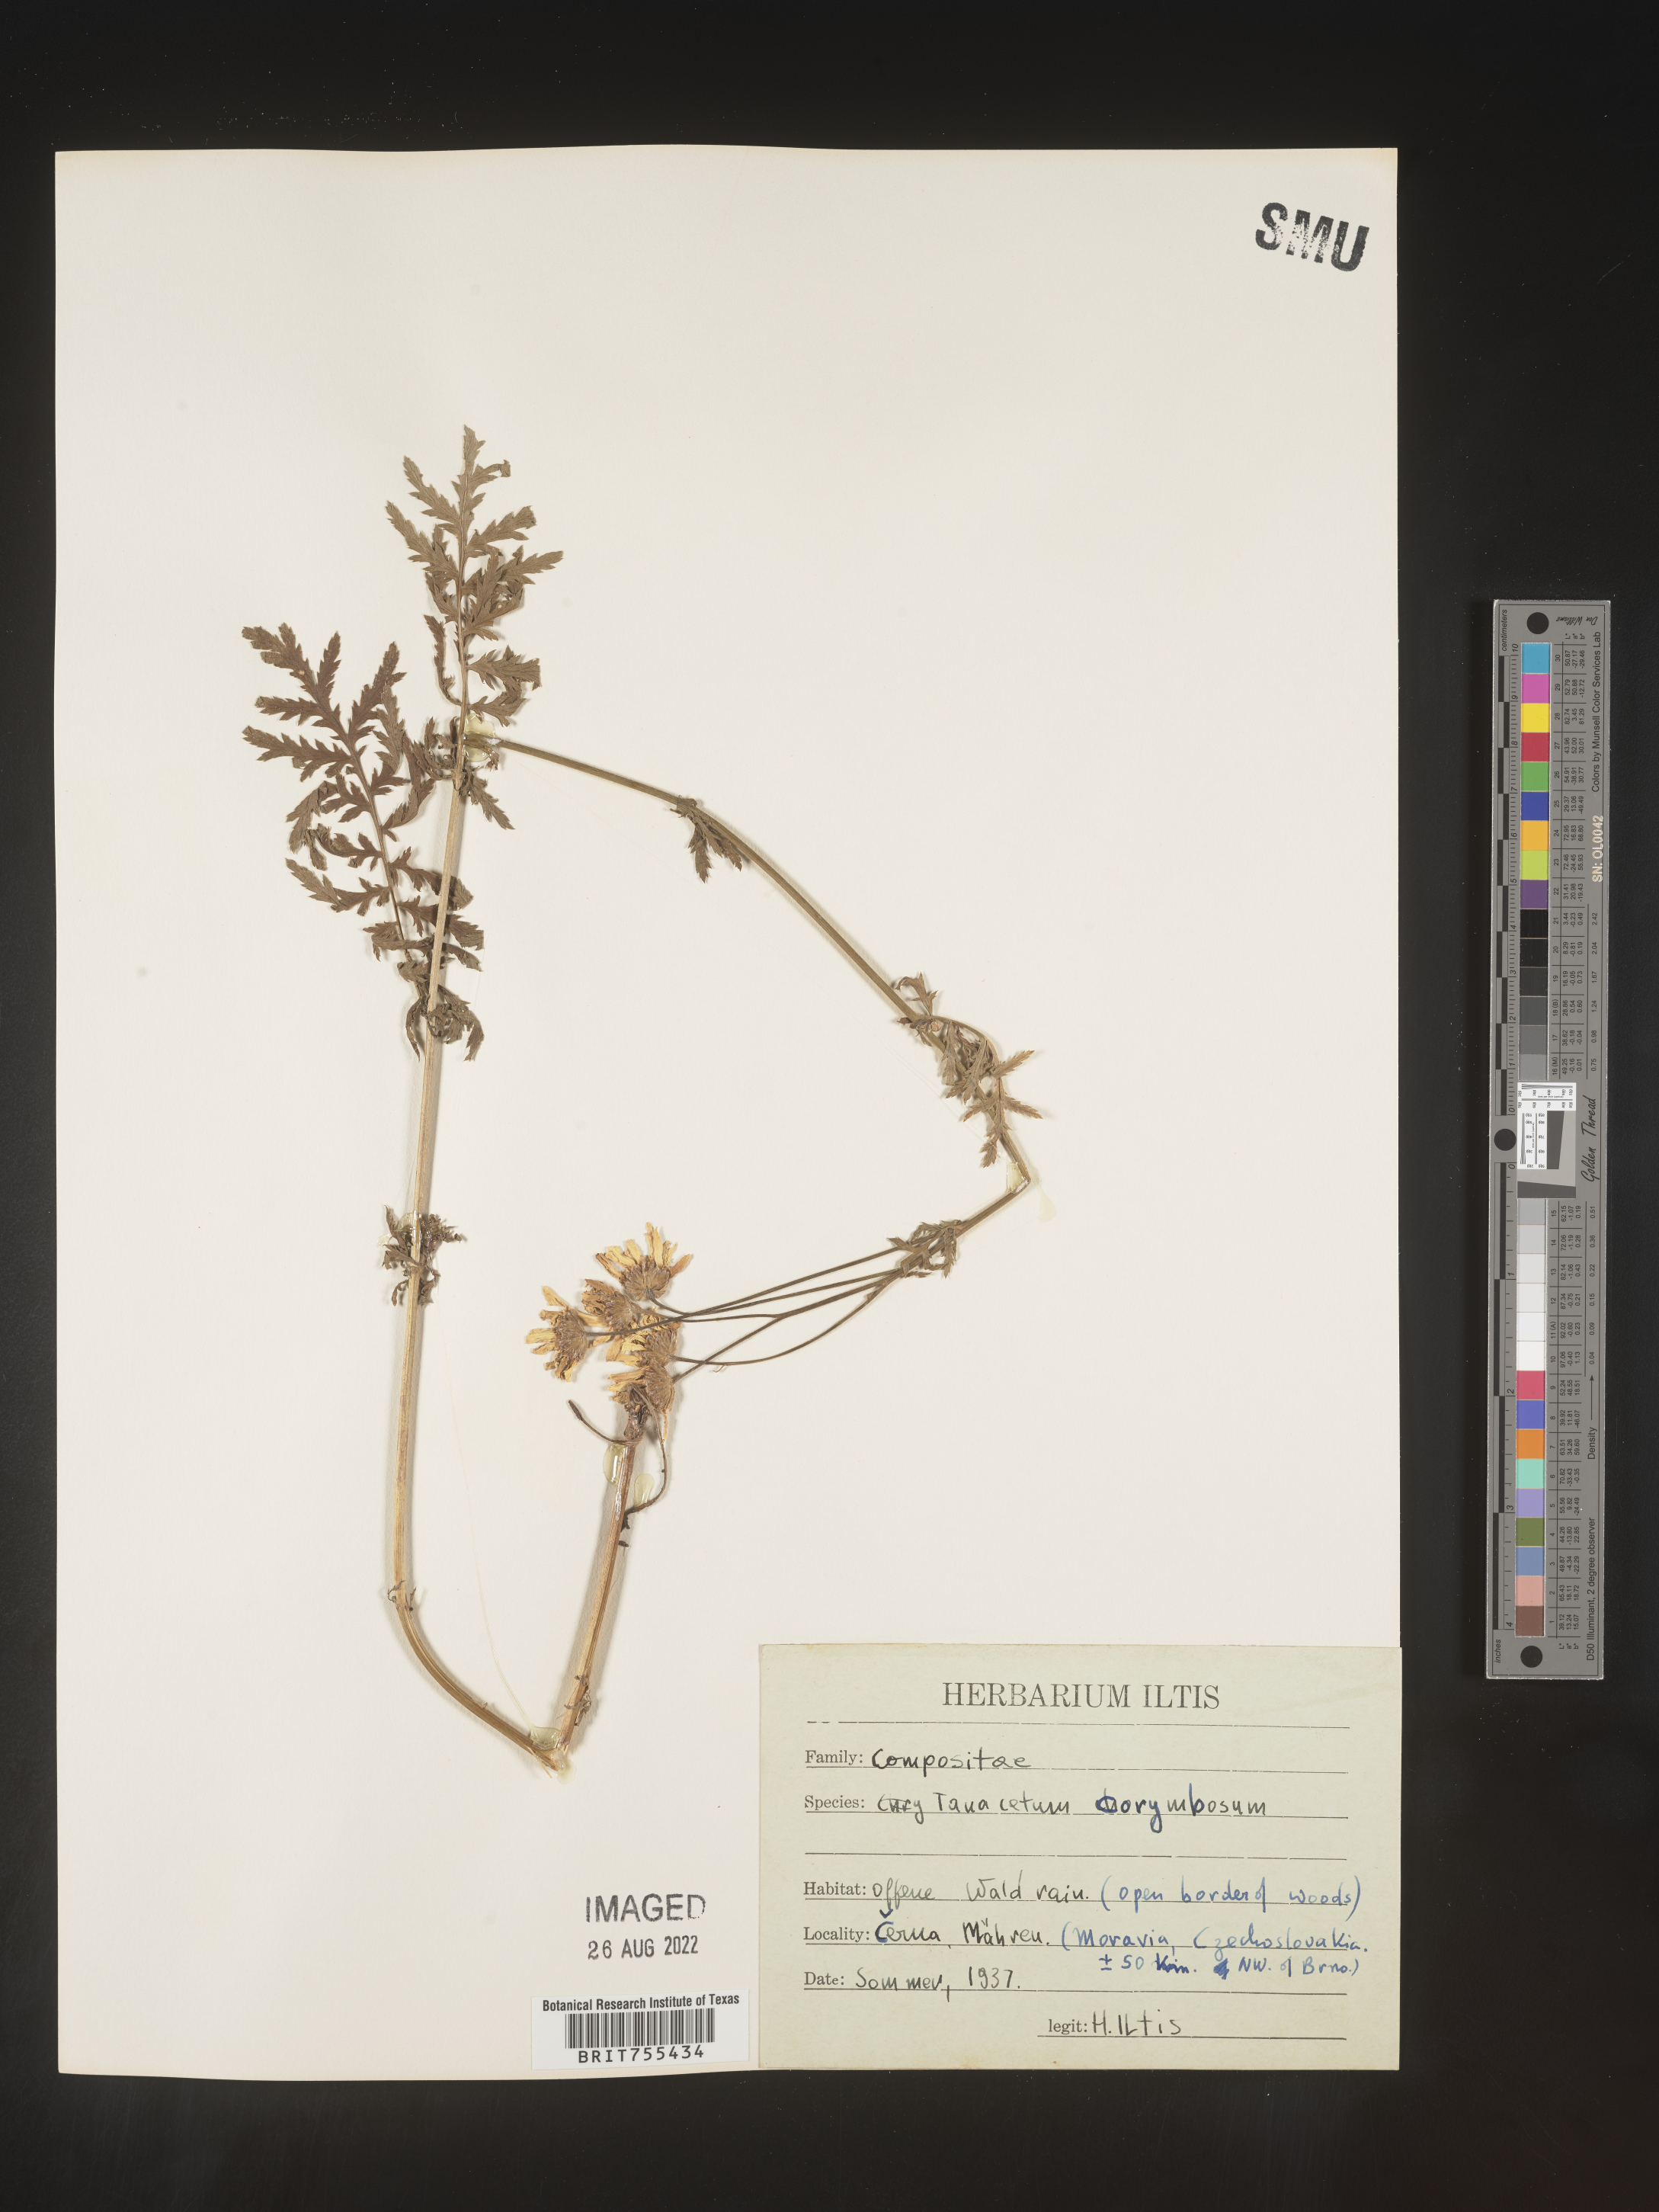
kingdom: Plantae
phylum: Tracheophyta
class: Magnoliopsida
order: Asterales
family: Asteraceae
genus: Tanacetum
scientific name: Tanacetum
